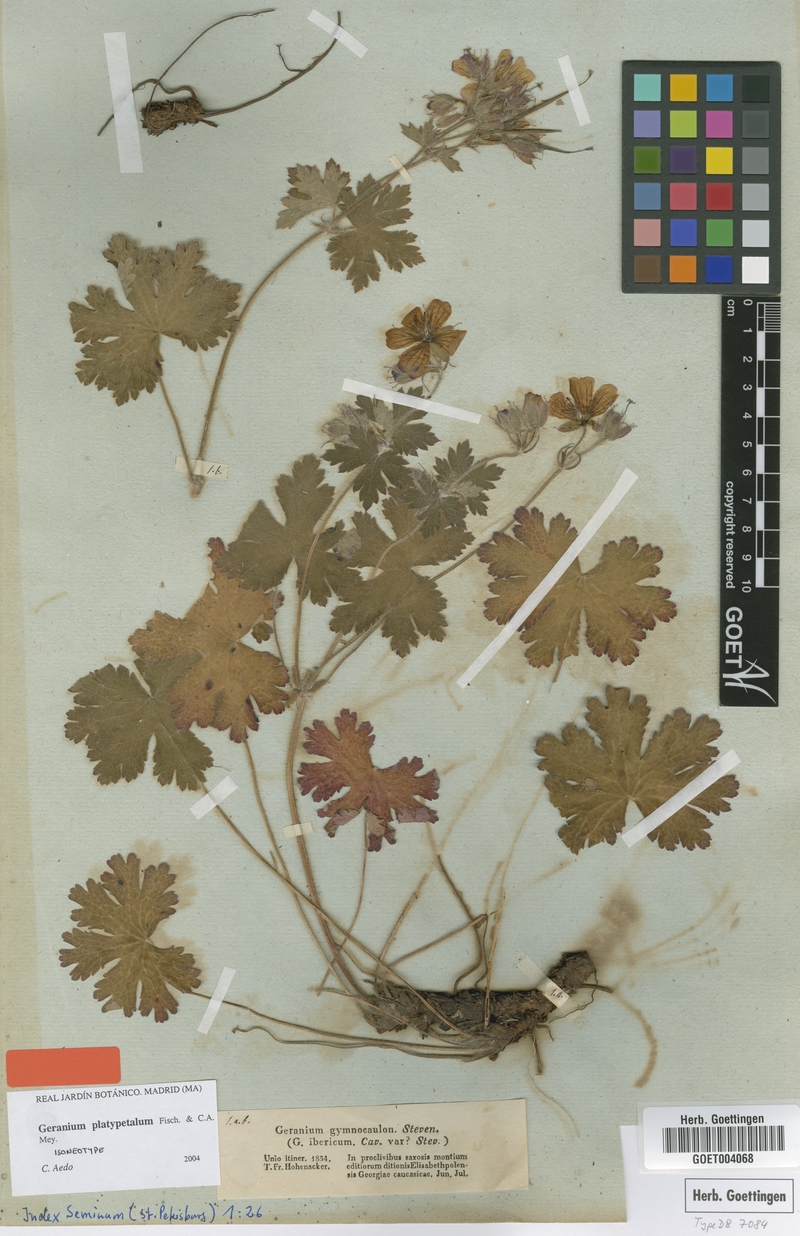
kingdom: Plantae
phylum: Tracheophyta
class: Magnoliopsida
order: Geraniales
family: Geraniaceae
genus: Geranium
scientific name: Geranium platypetalum
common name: Glandular crane's-bill
